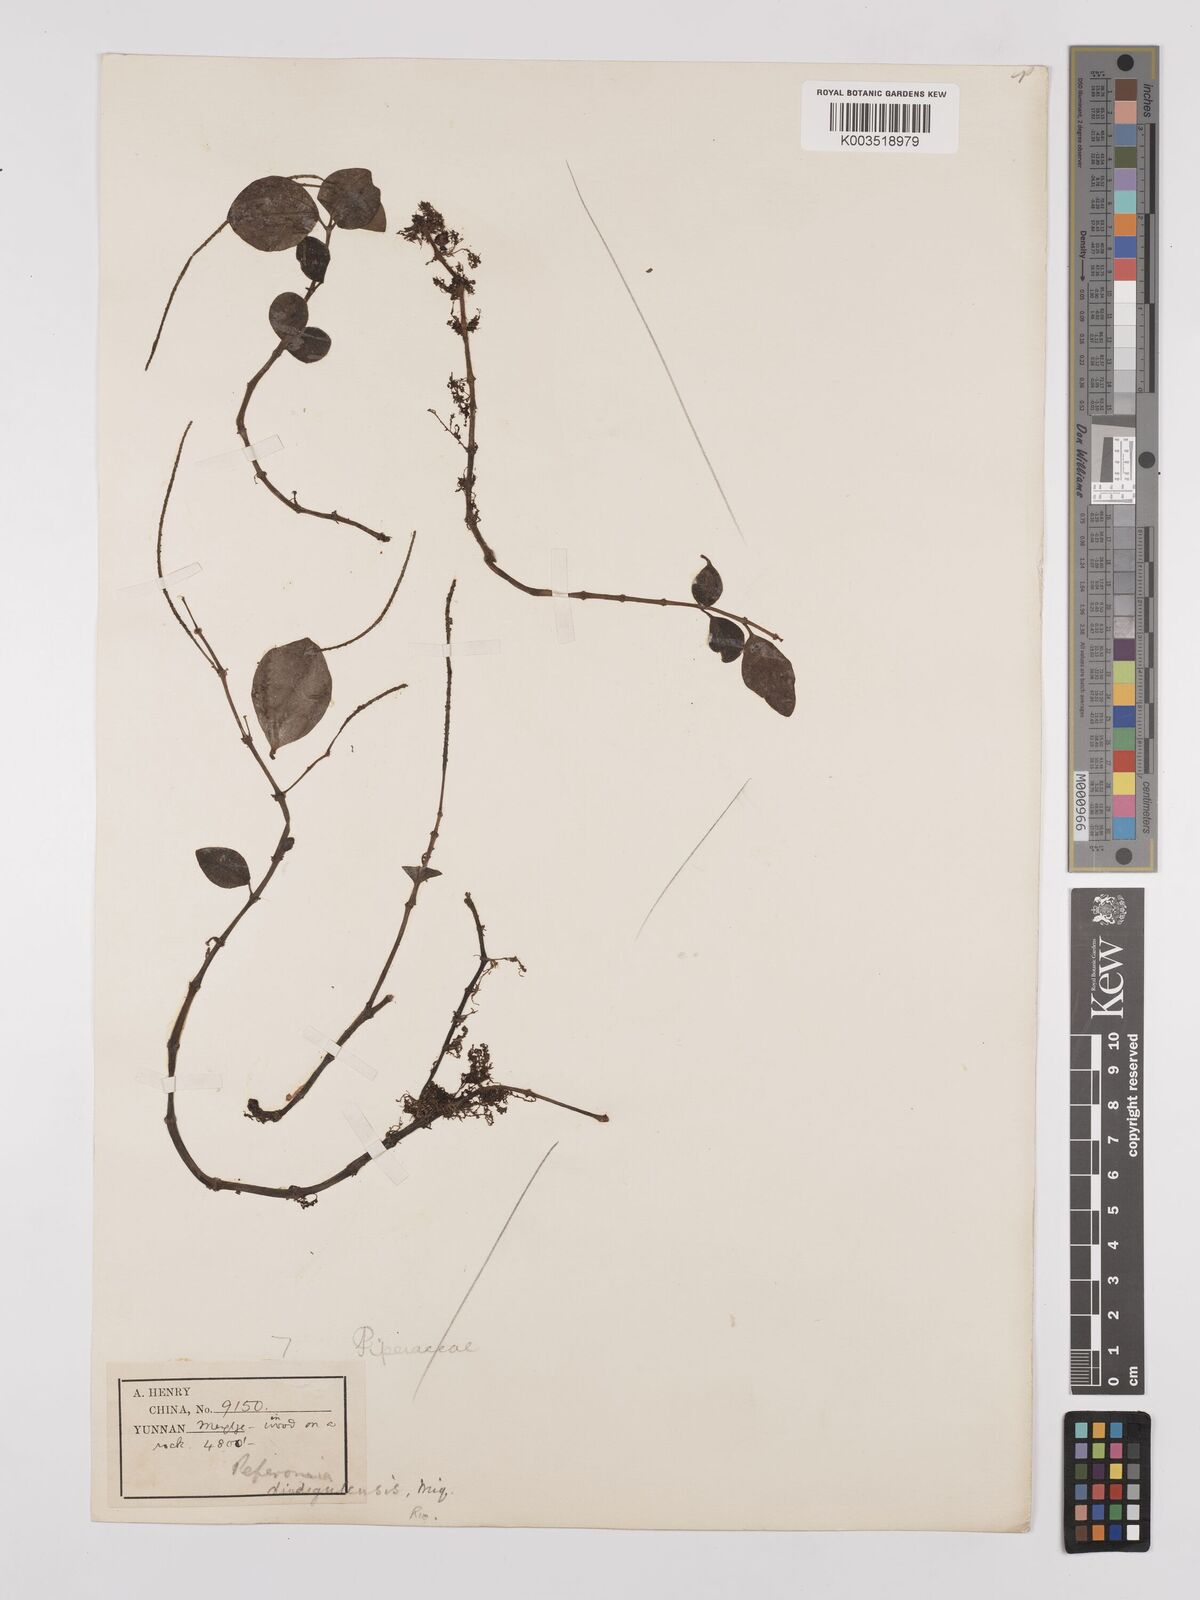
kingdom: Plantae
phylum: Tracheophyta
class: Magnoliopsida
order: Piperales
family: Piperaceae
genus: Peperomia
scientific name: Peperomia leptostachya
